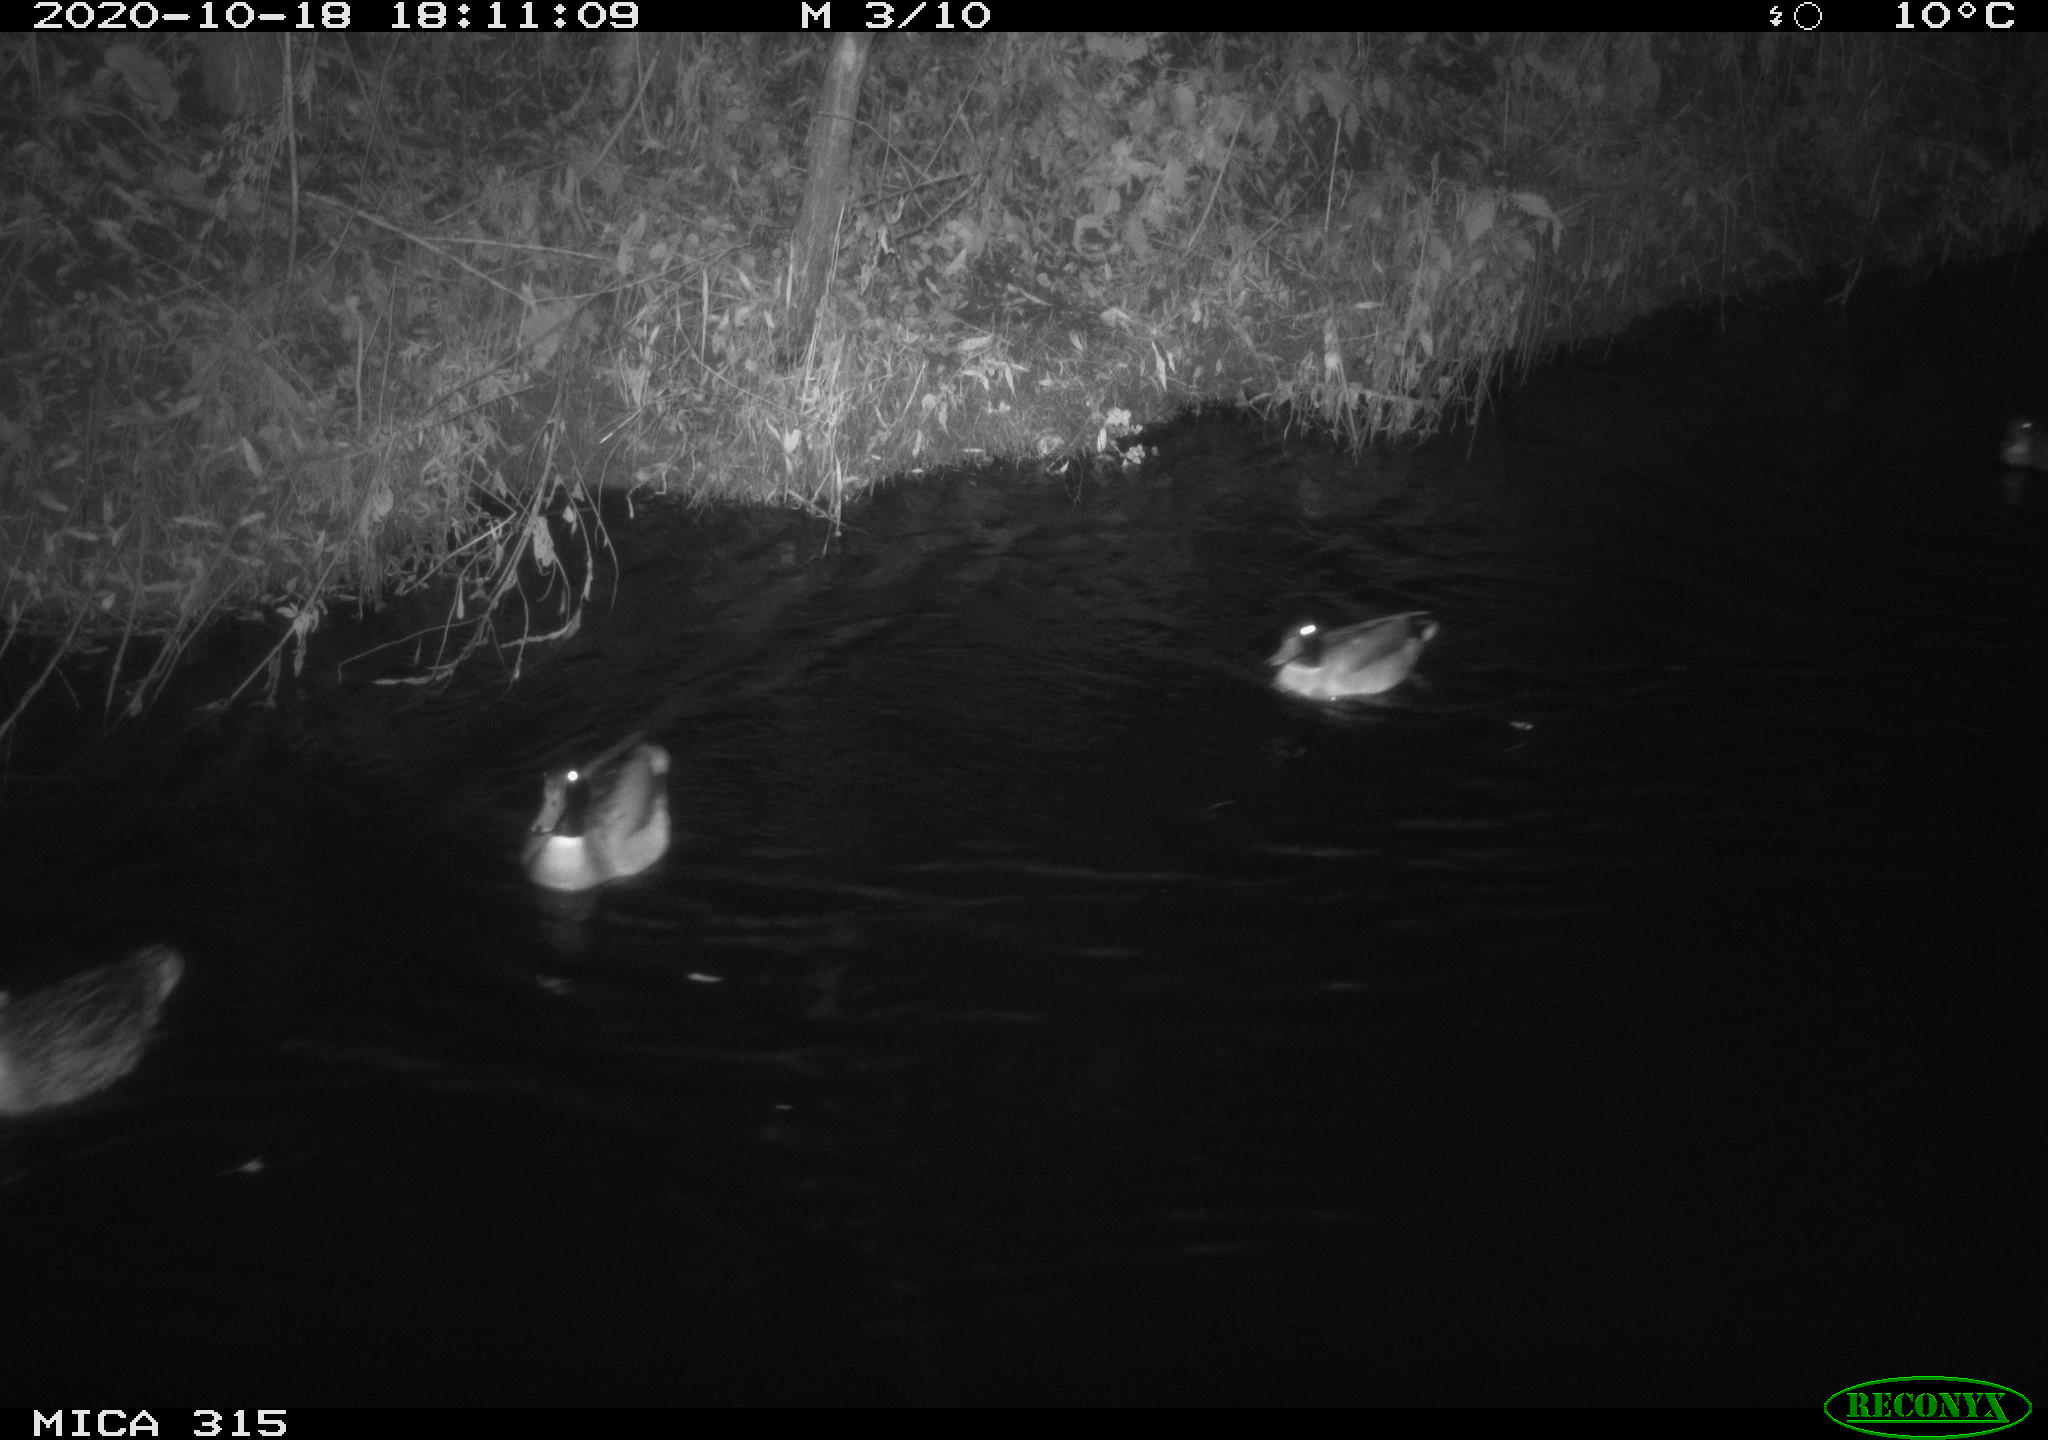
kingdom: Animalia
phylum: Chordata
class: Aves
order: Anseriformes
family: Anatidae
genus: Anas
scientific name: Anas platyrhynchos
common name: Mallard
